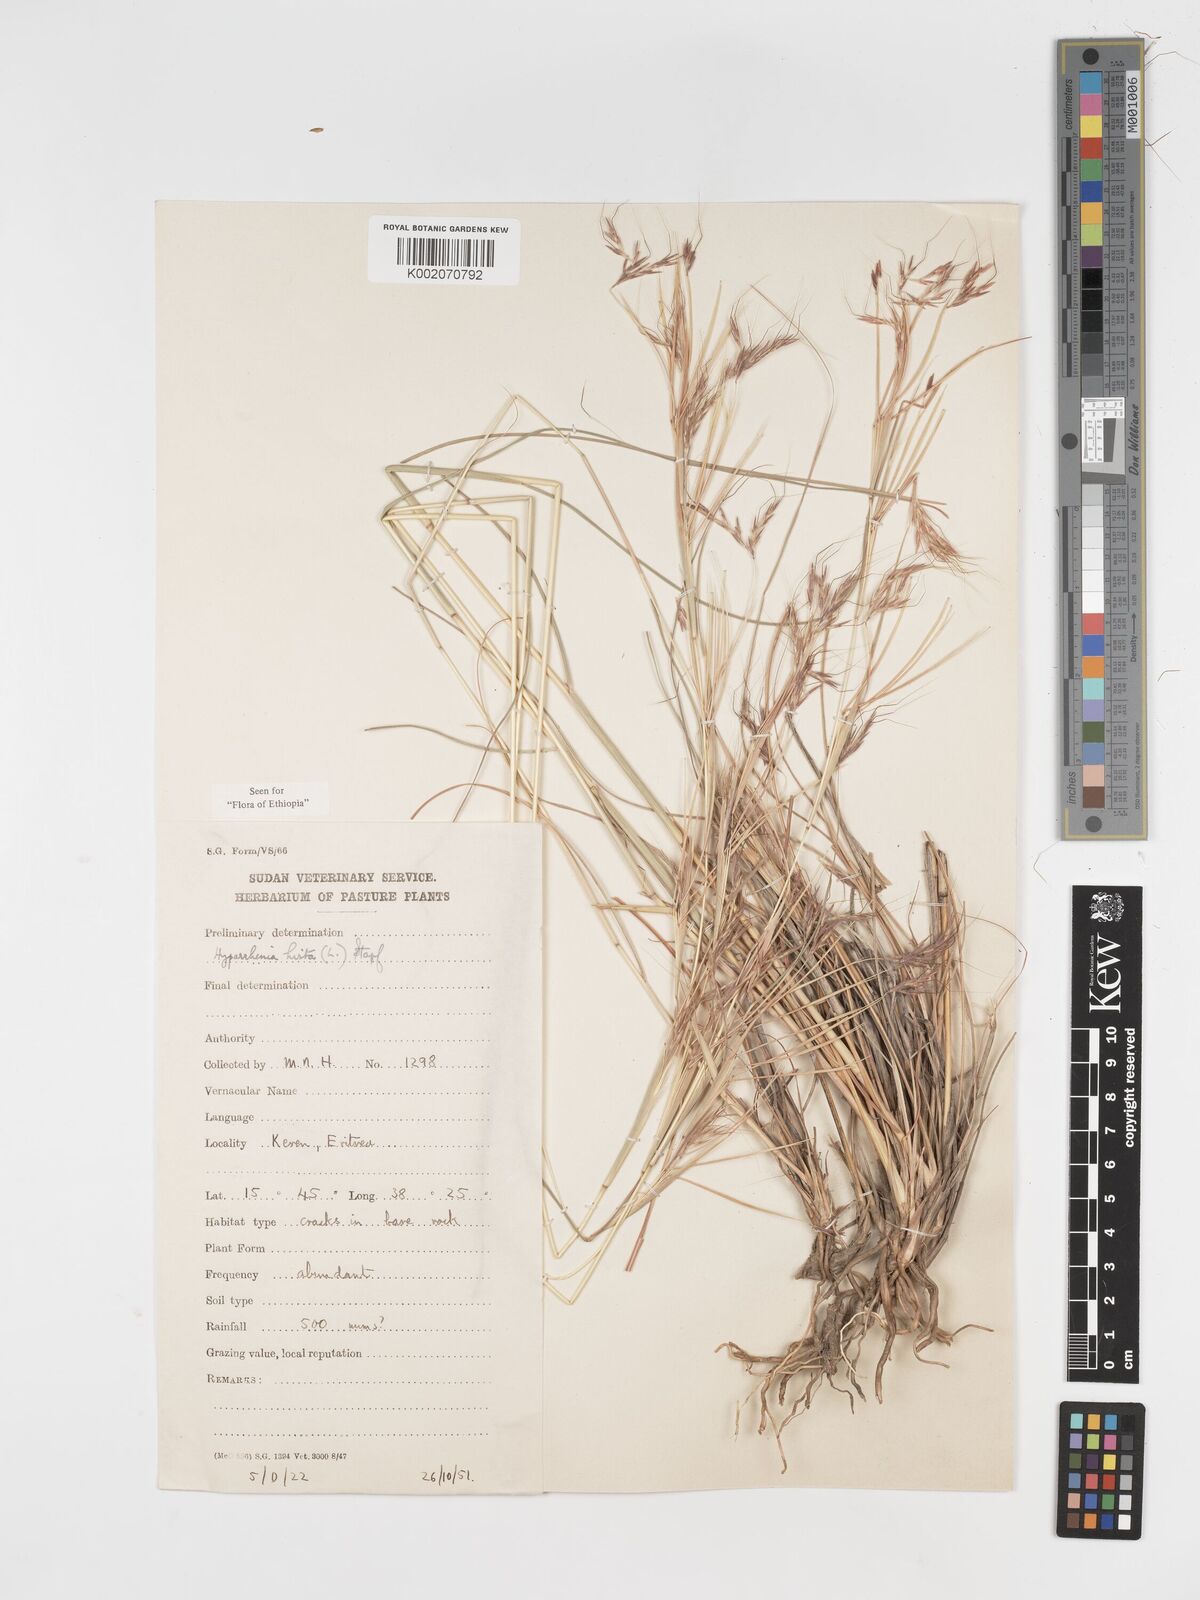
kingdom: Plantae
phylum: Tracheophyta
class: Liliopsida
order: Poales
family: Poaceae
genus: Hyparrhenia
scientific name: Hyparrhenia hirta
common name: Thatching grass
